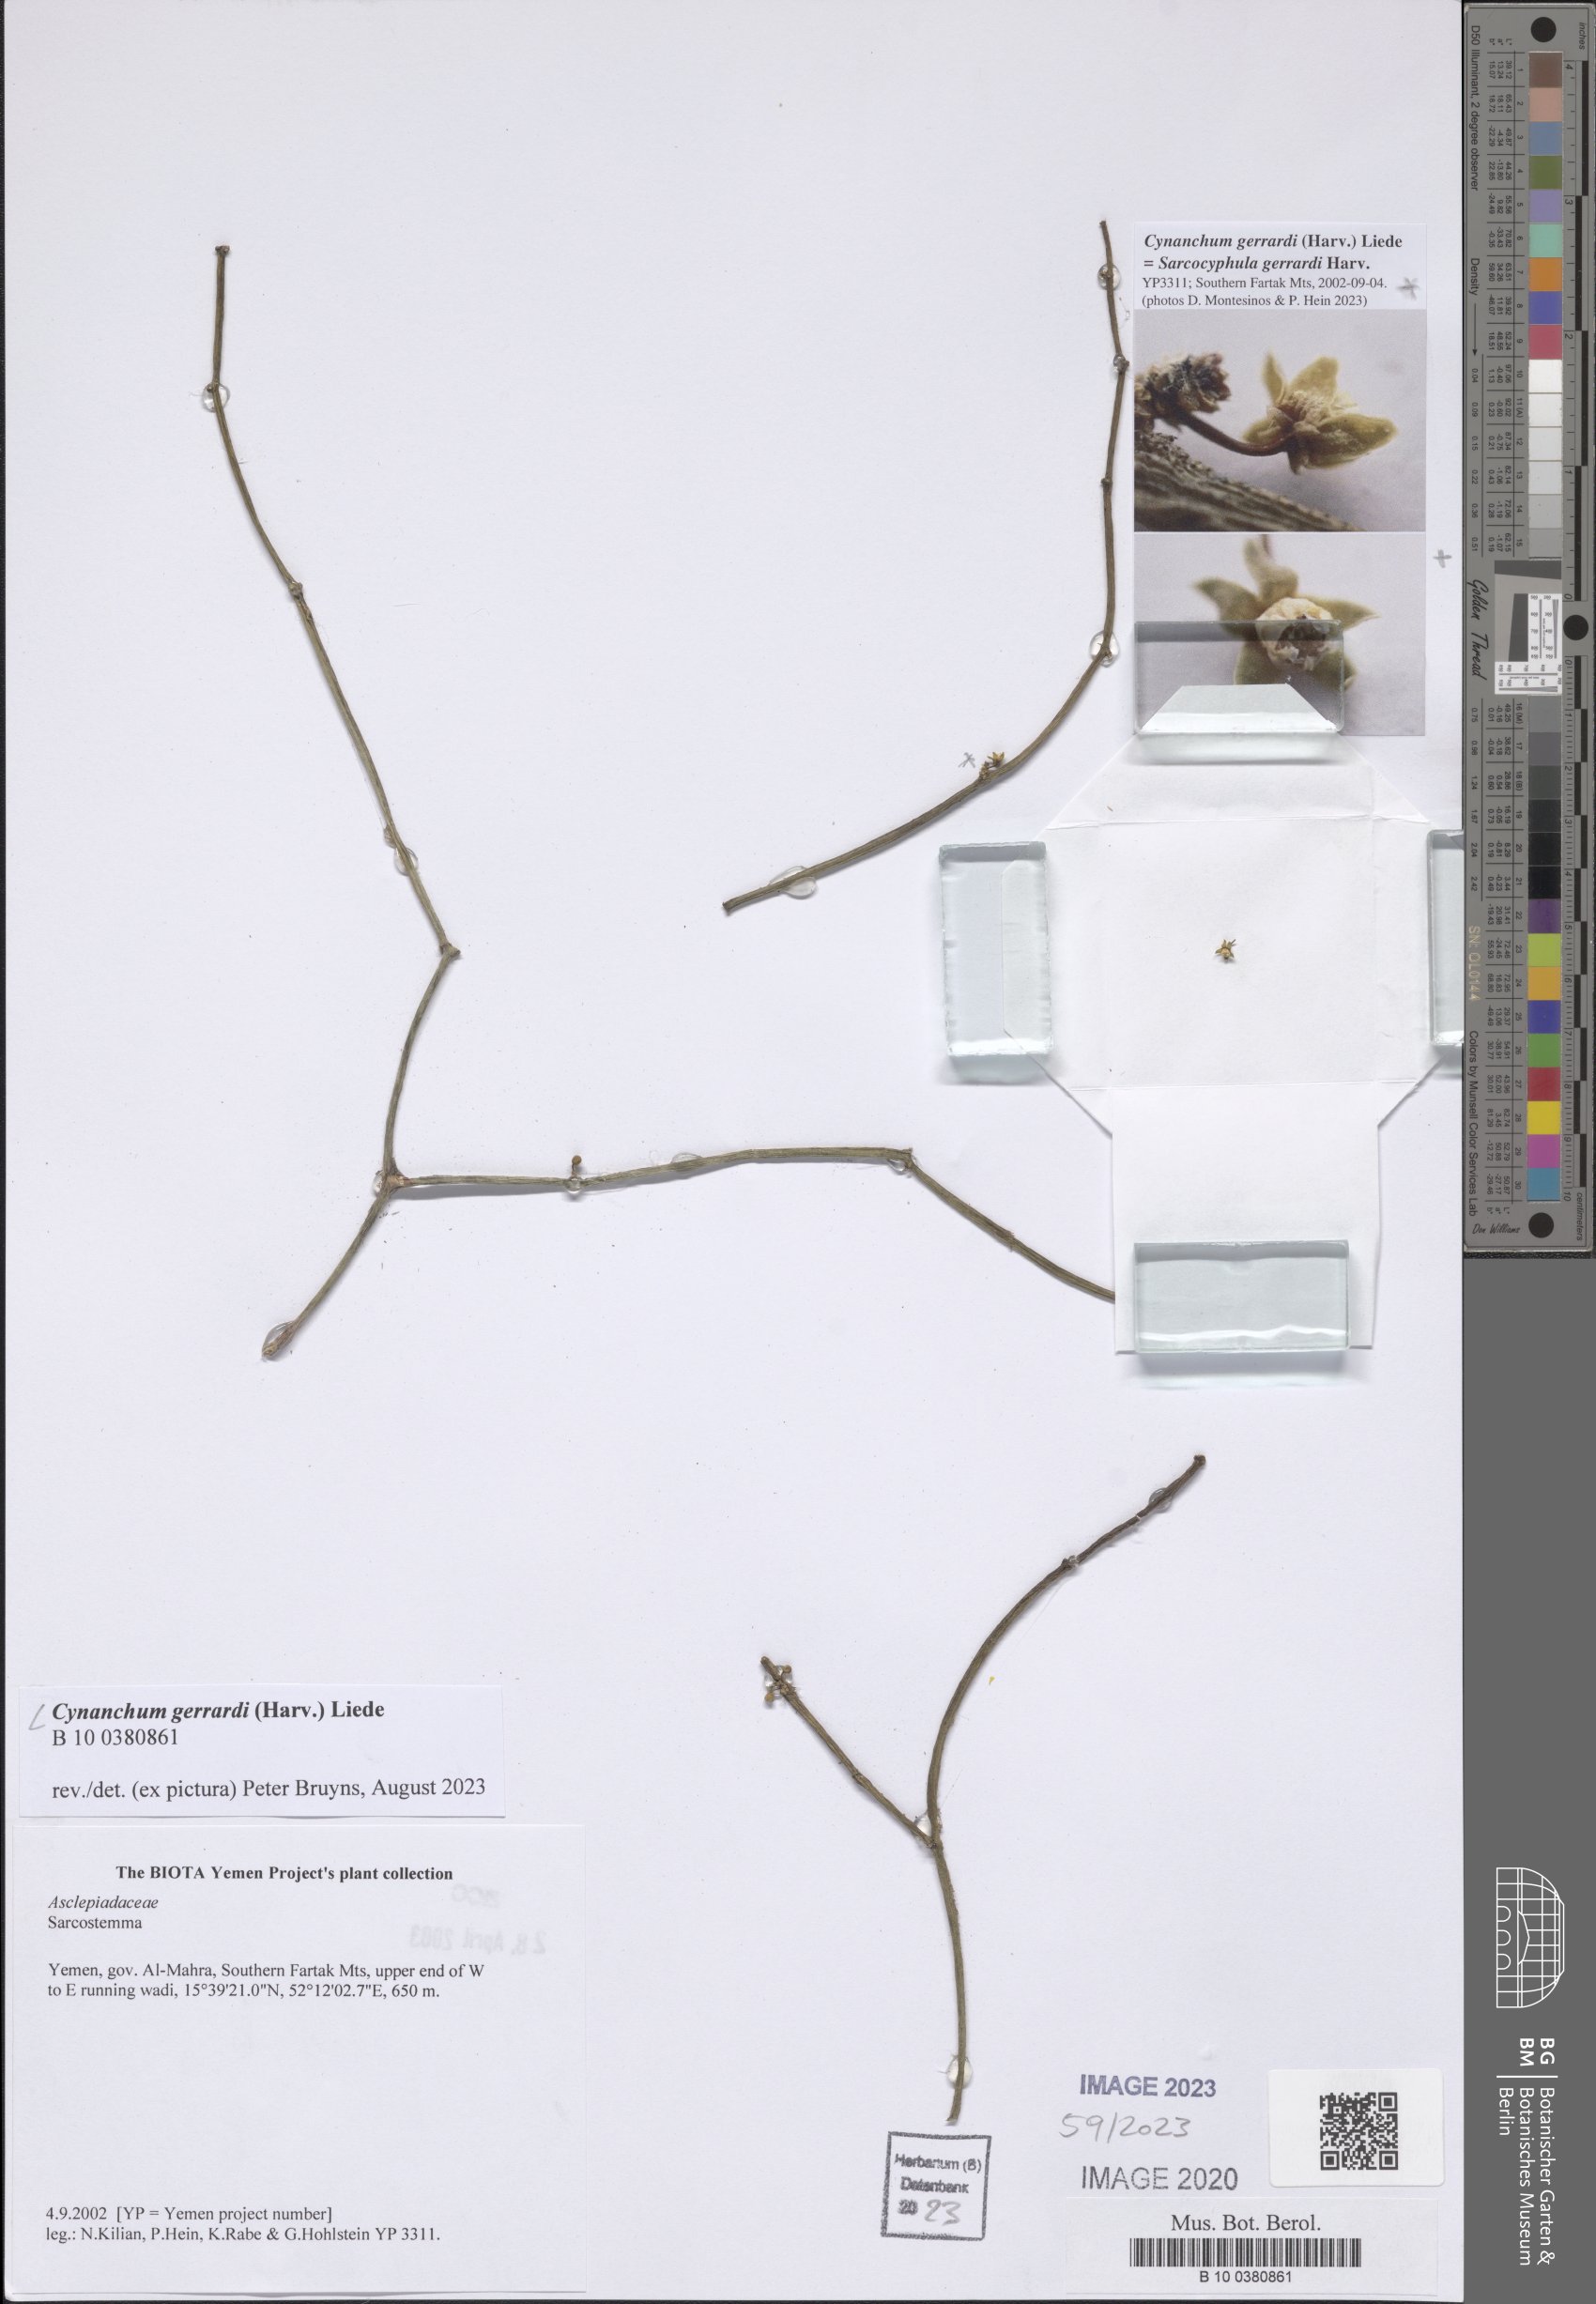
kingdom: Plantae
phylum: Tracheophyta
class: Magnoliopsida
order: Gentianales
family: Apocynaceae
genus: Cynanchum
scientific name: Cynanchum gerrardi
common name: Swallow-wort
